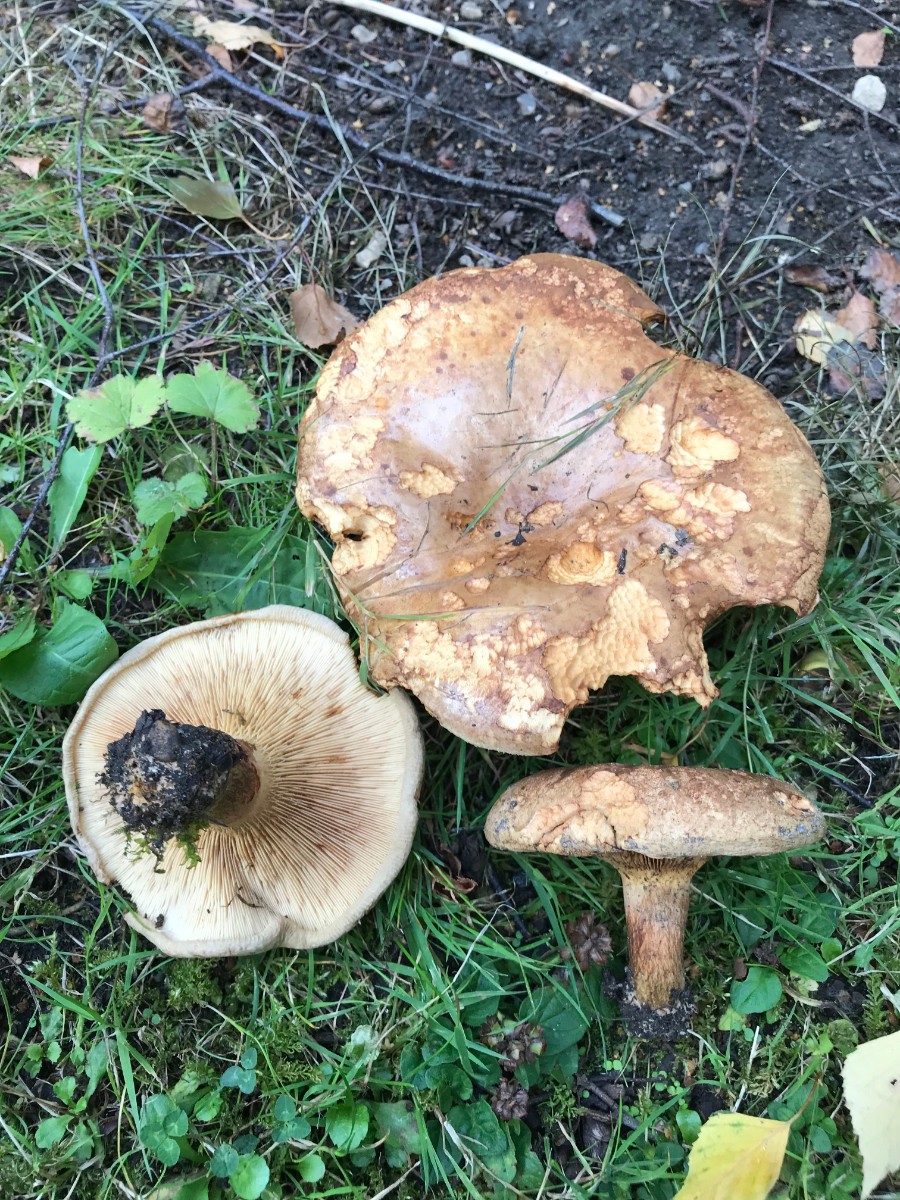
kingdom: Fungi
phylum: Basidiomycota
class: Agaricomycetes
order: Boletales
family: Paxillaceae
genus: Paxillus
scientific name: Paxillus involutus
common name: almindelig netbladhat
